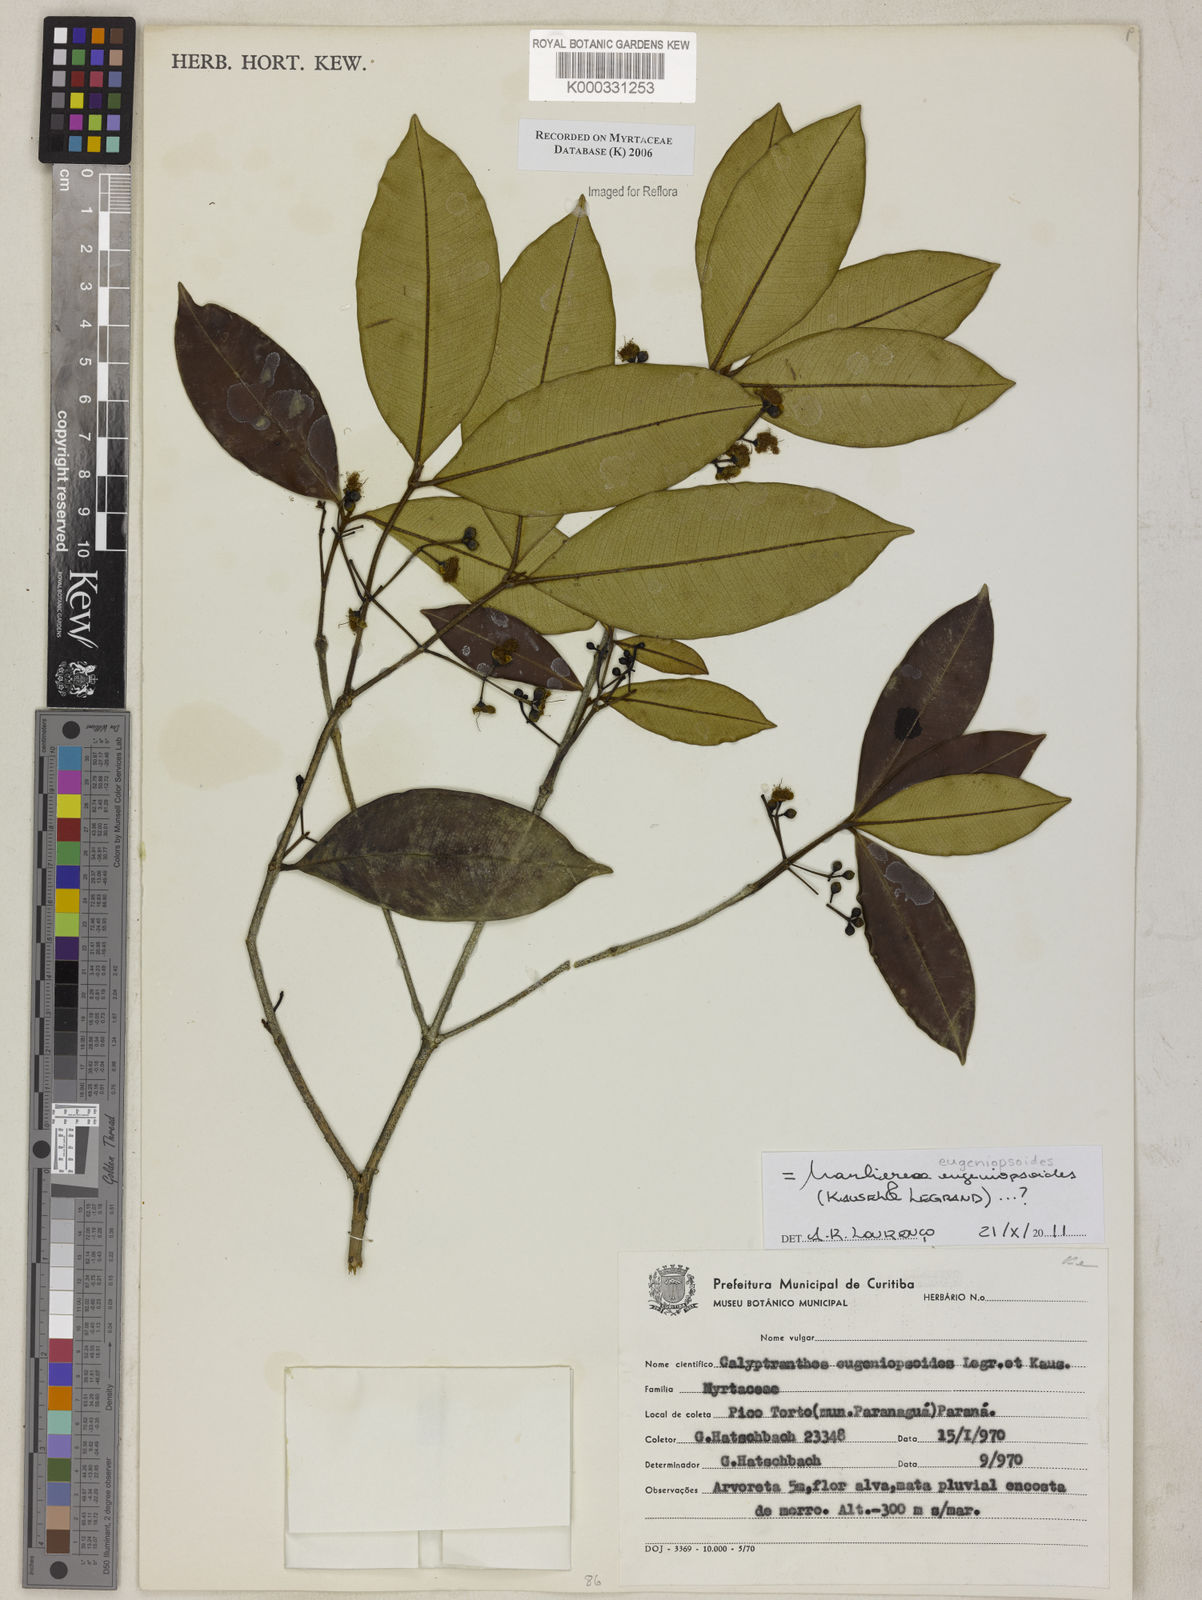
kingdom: Plantae
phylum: Tracheophyta
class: Magnoliopsida
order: Myrtales
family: Myrtaceae
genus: Myrcia
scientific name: Myrcia eugeniopsoides
